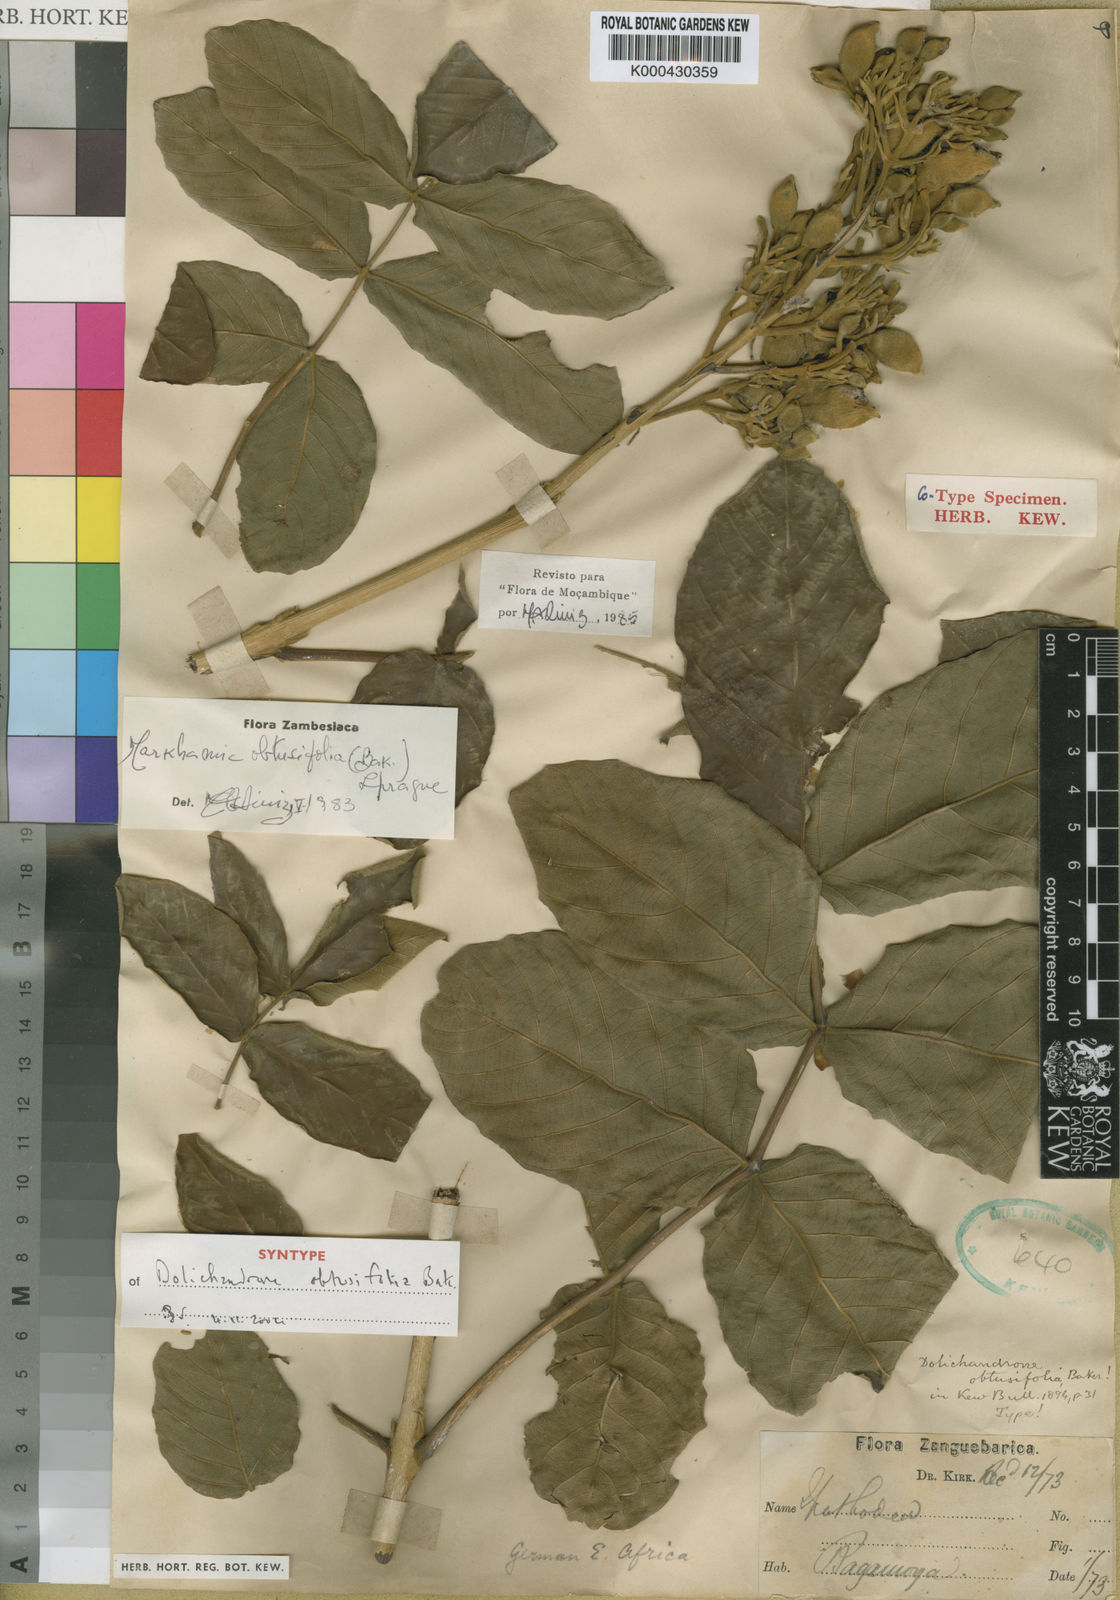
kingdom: Plantae
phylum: Tracheophyta
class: Magnoliopsida
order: Lamiales
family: Bignoniaceae
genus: Markhamia
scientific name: Markhamia obtusifolia
